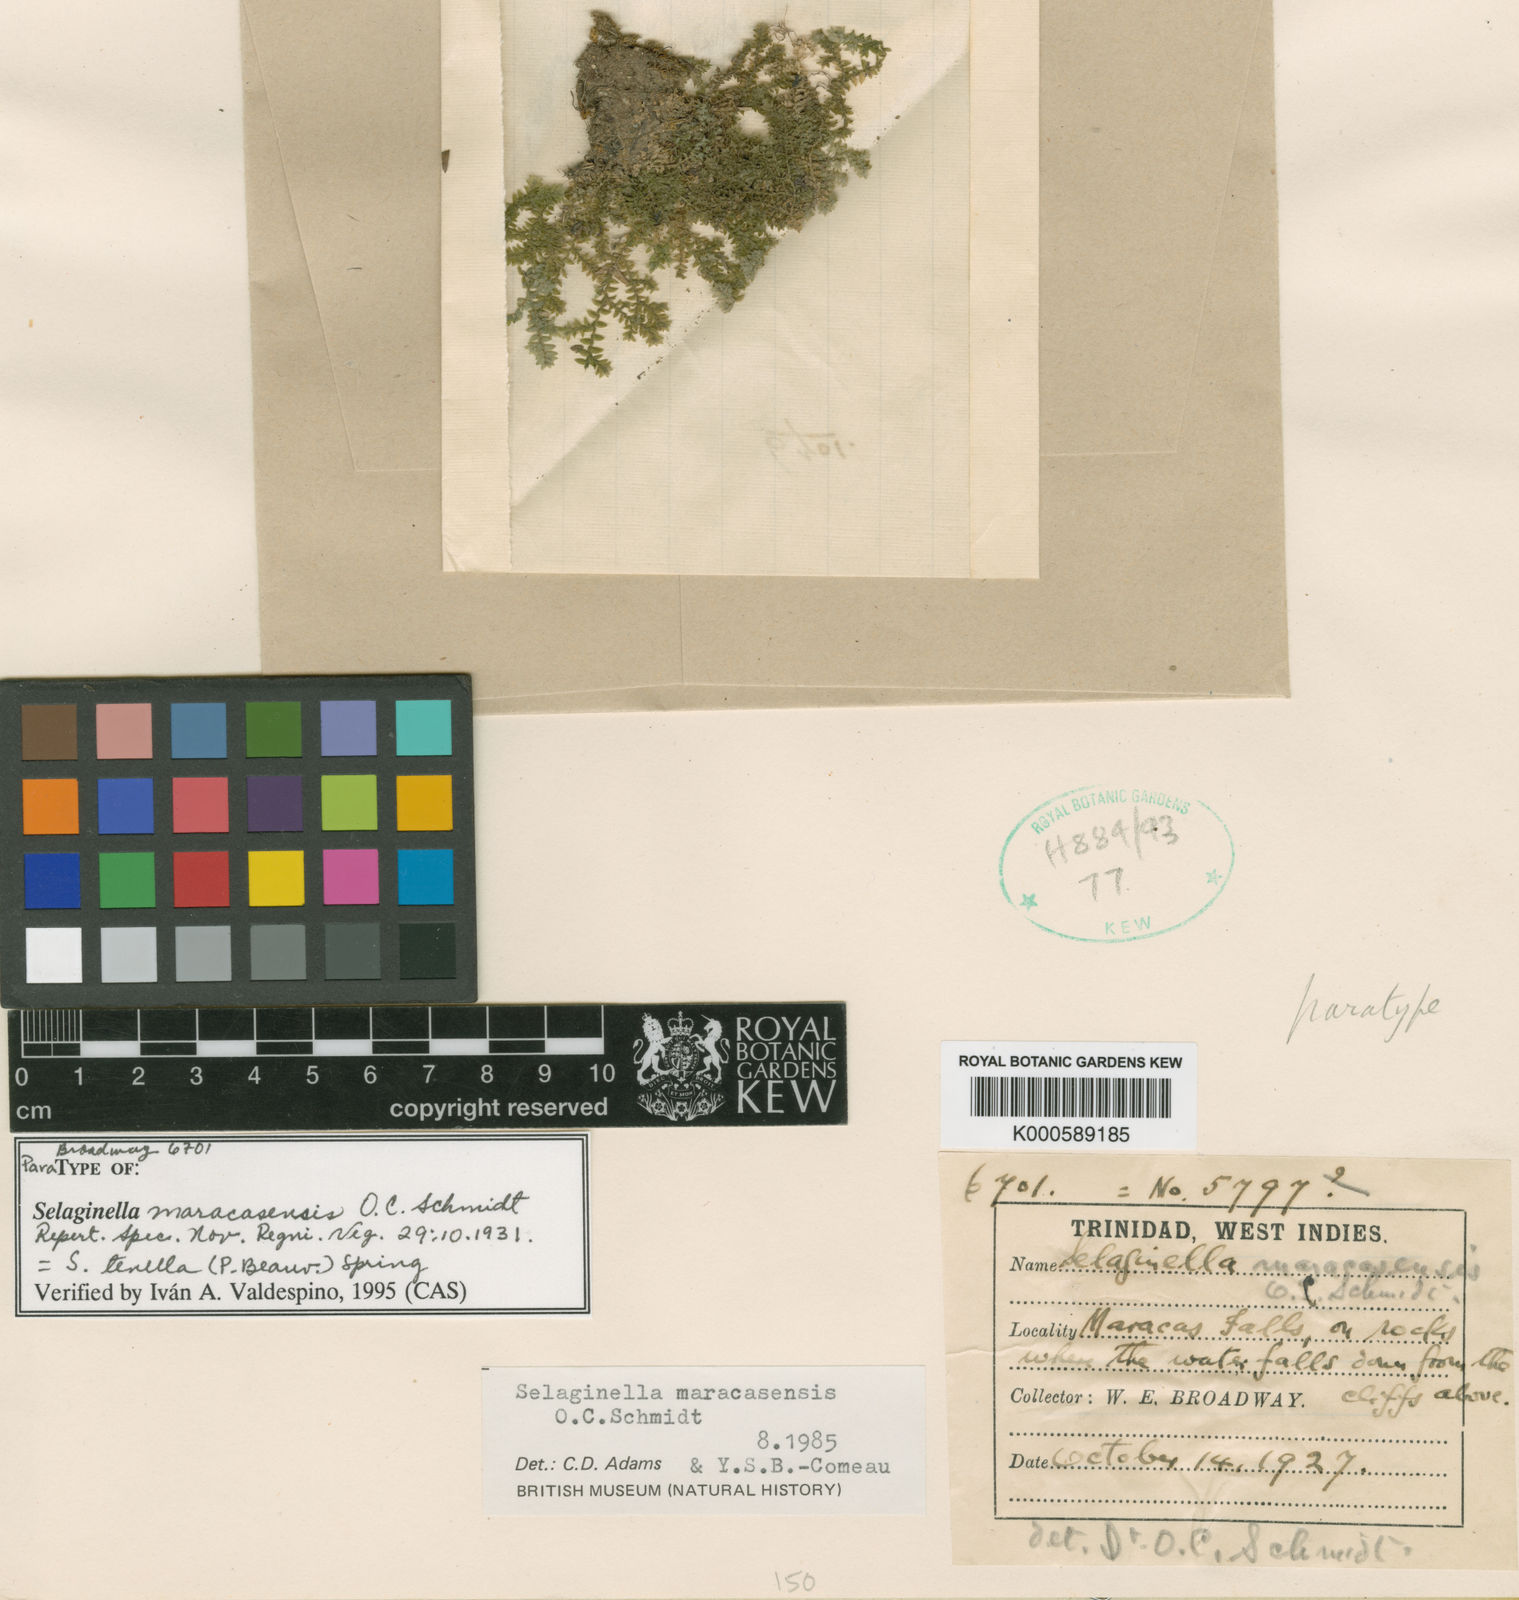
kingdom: Plantae
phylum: Tracheophyta
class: Lycopodiopsida
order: Selaginellales
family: Selaginellaceae
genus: Selaginella
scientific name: Selaginella tenella
